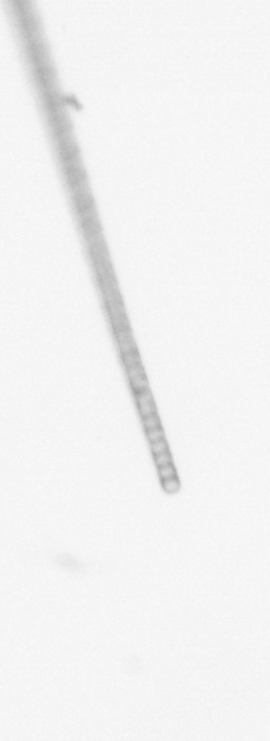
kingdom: Chromista
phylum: Ochrophyta
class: Bacillariophyceae
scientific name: Bacillariophyceae
